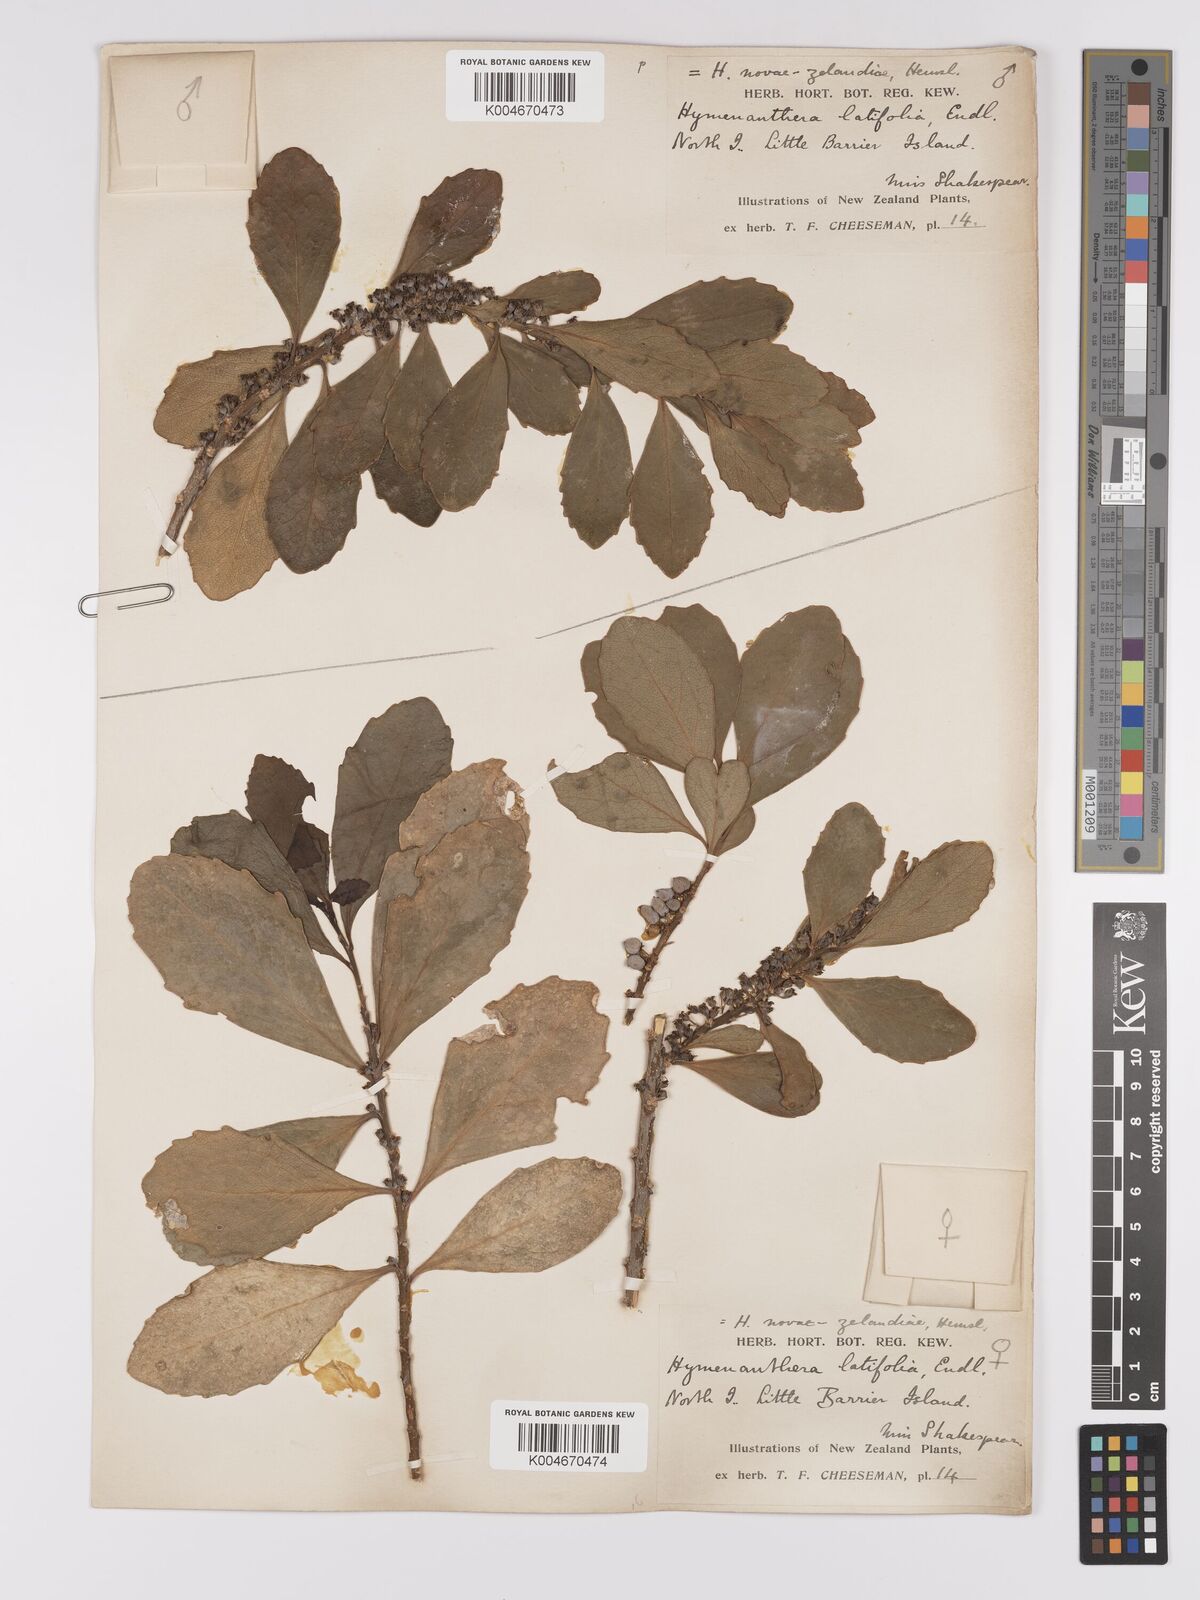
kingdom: Plantae
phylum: Tracheophyta
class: Magnoliopsida
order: Malpighiales
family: Violaceae
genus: Melicytus
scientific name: Melicytus novae-zelandiae
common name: Coastal mahoe
